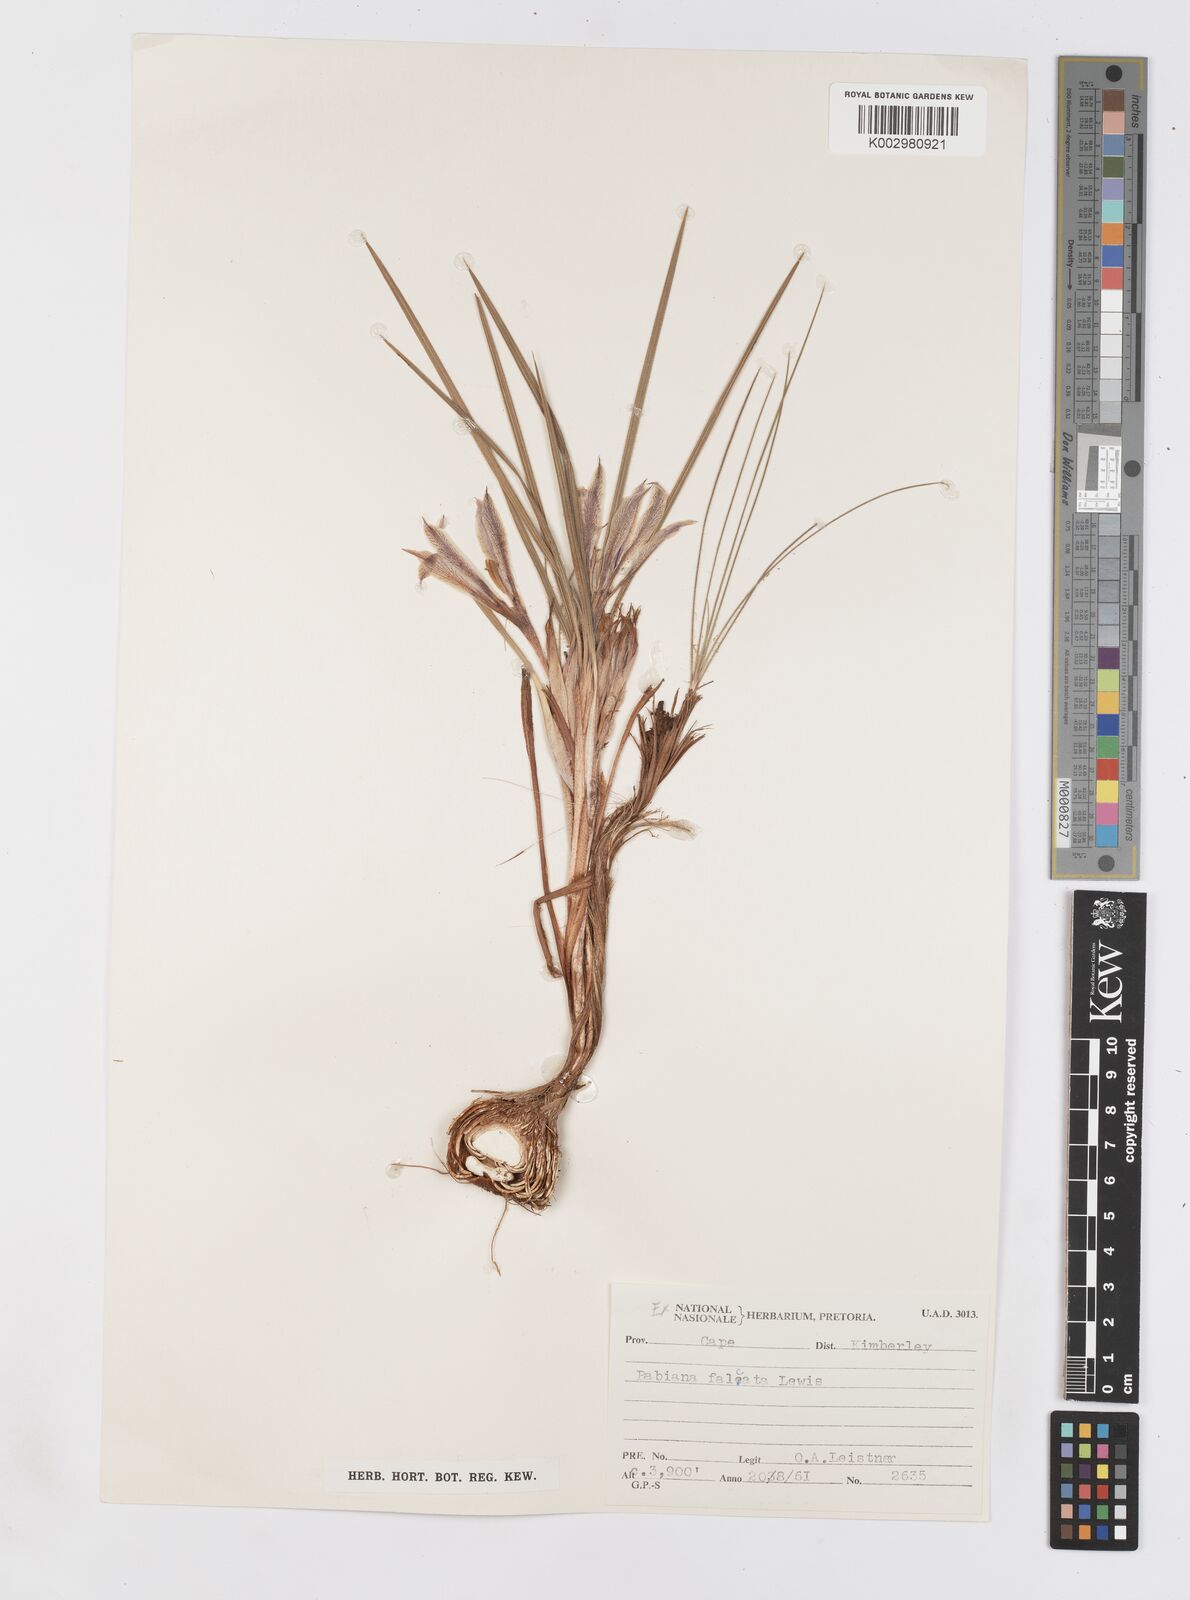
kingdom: Plantae
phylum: Tracheophyta
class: Liliopsida
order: Asparagales
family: Iridaceae
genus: Babiana
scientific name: Babiana hypogaea
